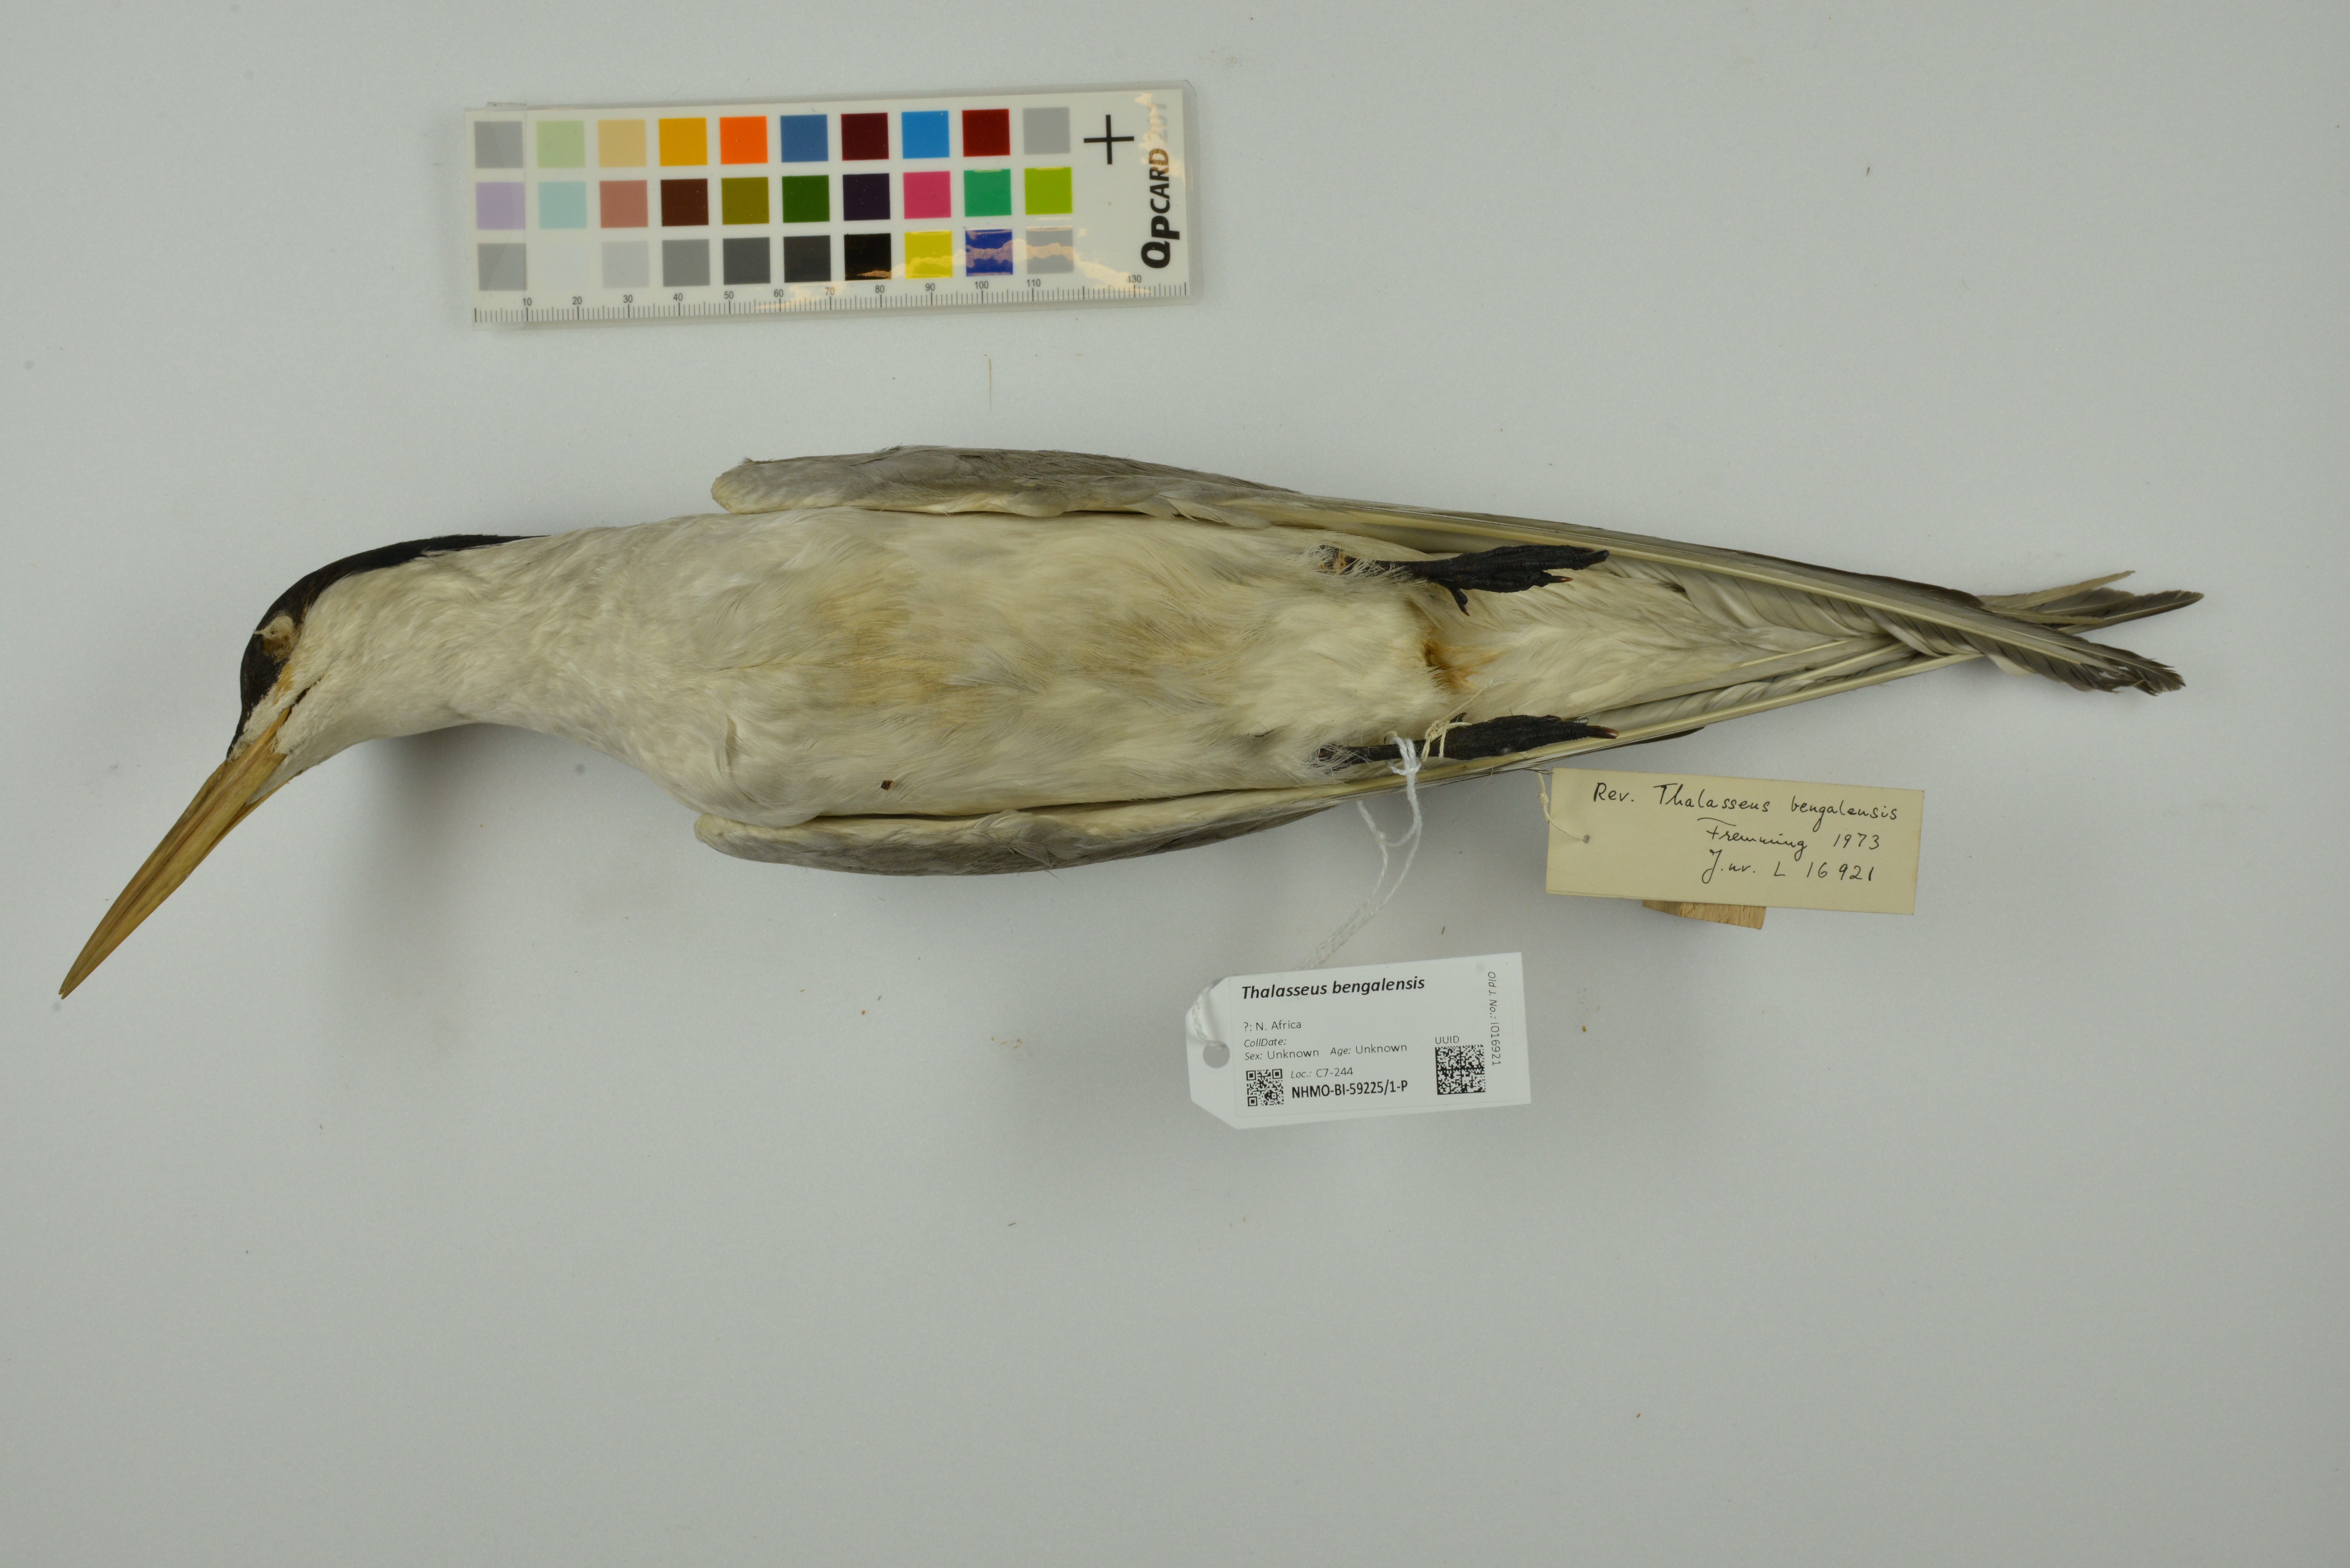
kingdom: Animalia
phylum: Chordata
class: Aves
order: Charadriiformes
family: Laridae
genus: Thalasseus
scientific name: Thalasseus bengalensis
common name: Lesser crested tern
